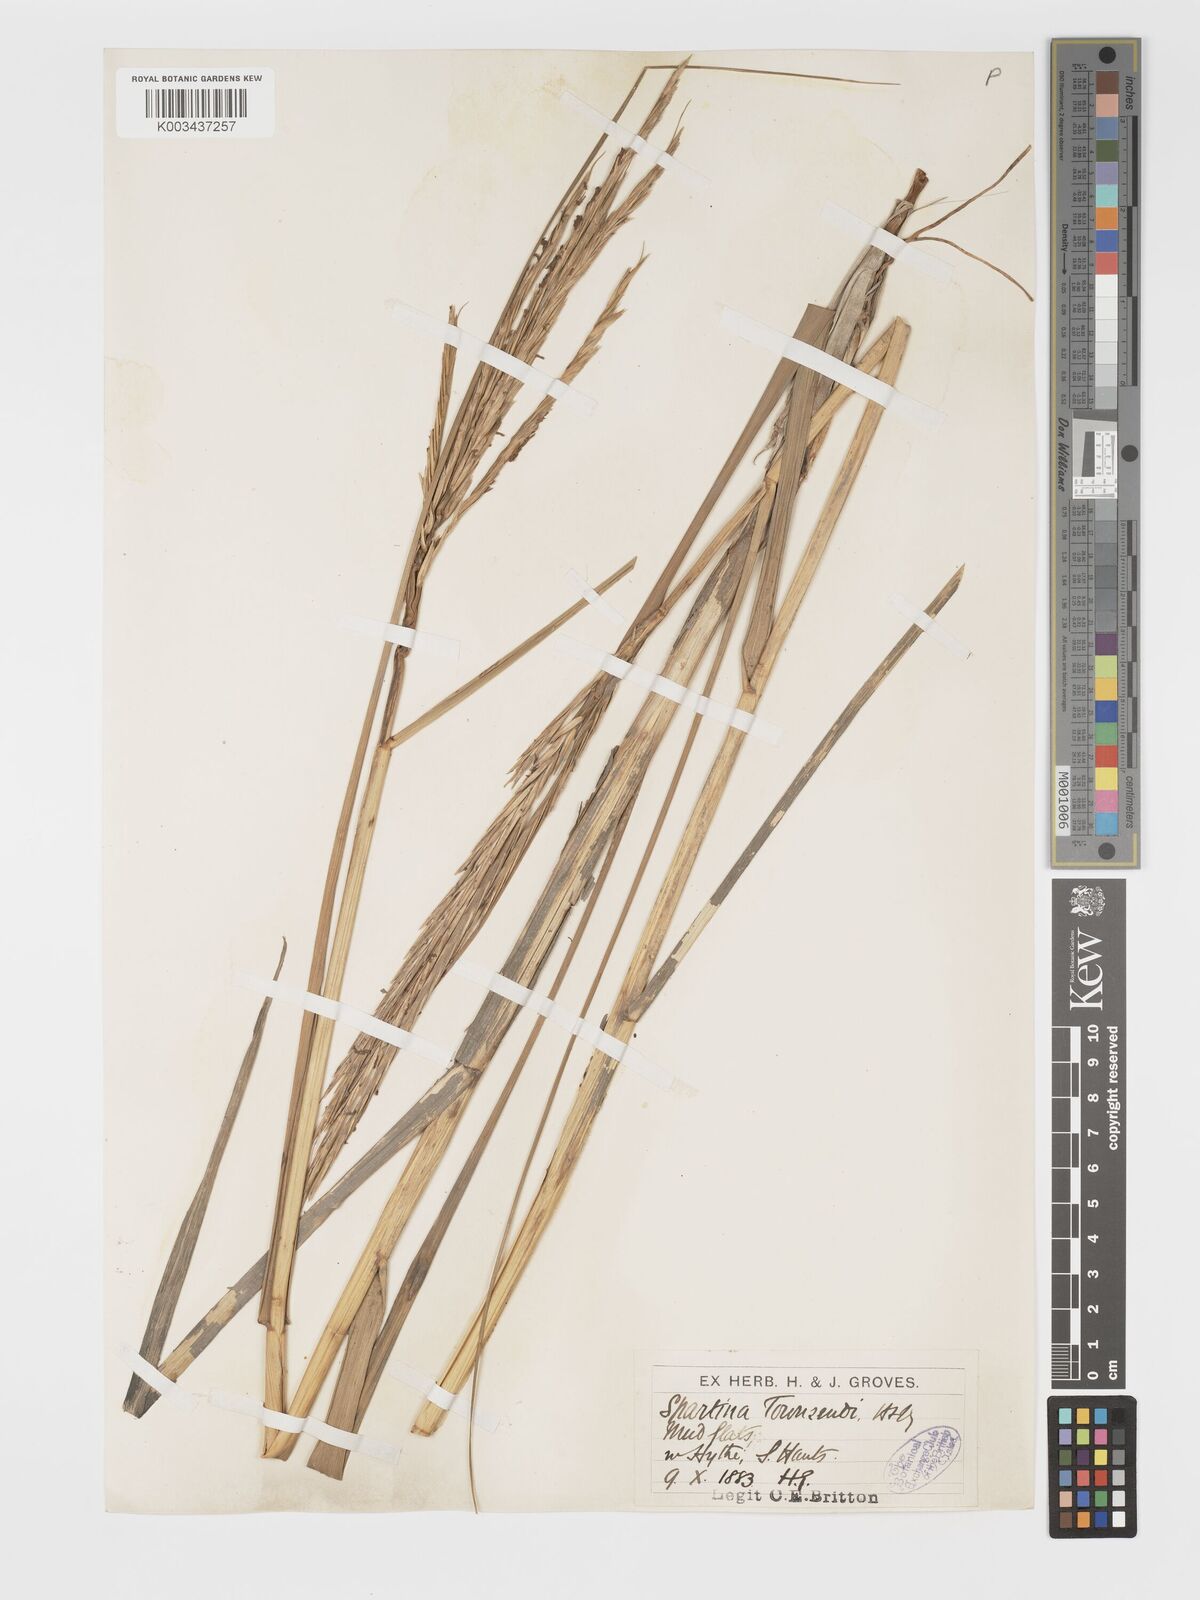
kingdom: Plantae
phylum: Tracheophyta
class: Liliopsida
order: Poales
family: Poaceae
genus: Sporobolus
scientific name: Sporobolus townsendii
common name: Townsend's cordgrass
